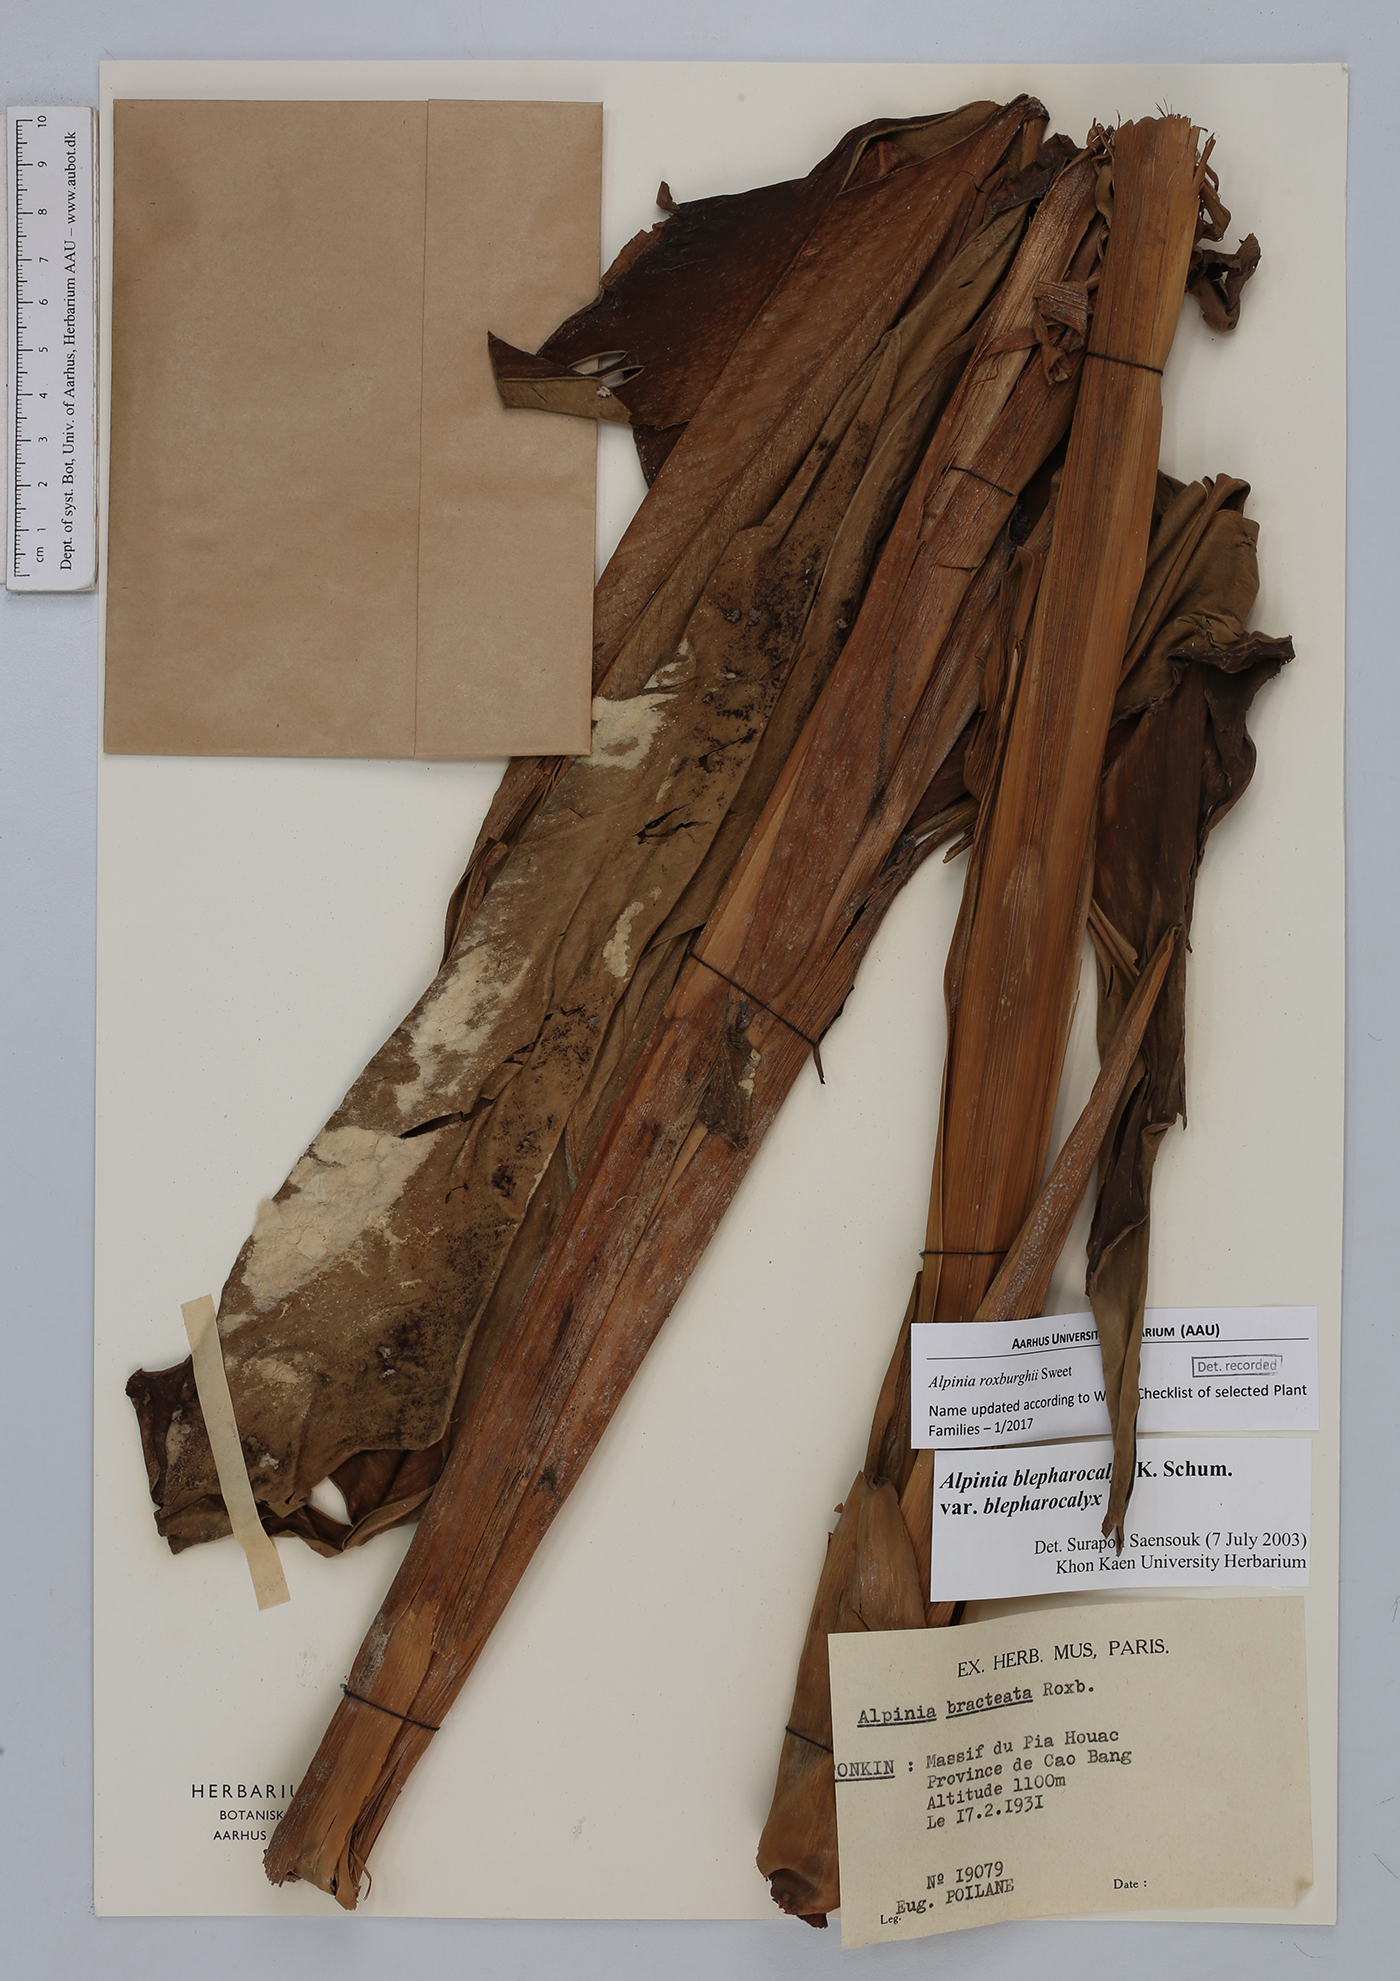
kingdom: Plantae
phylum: Tracheophyta
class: Liliopsida
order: Zingiberales
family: Zingiberaceae
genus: Alpinia
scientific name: Alpinia roxburghii
